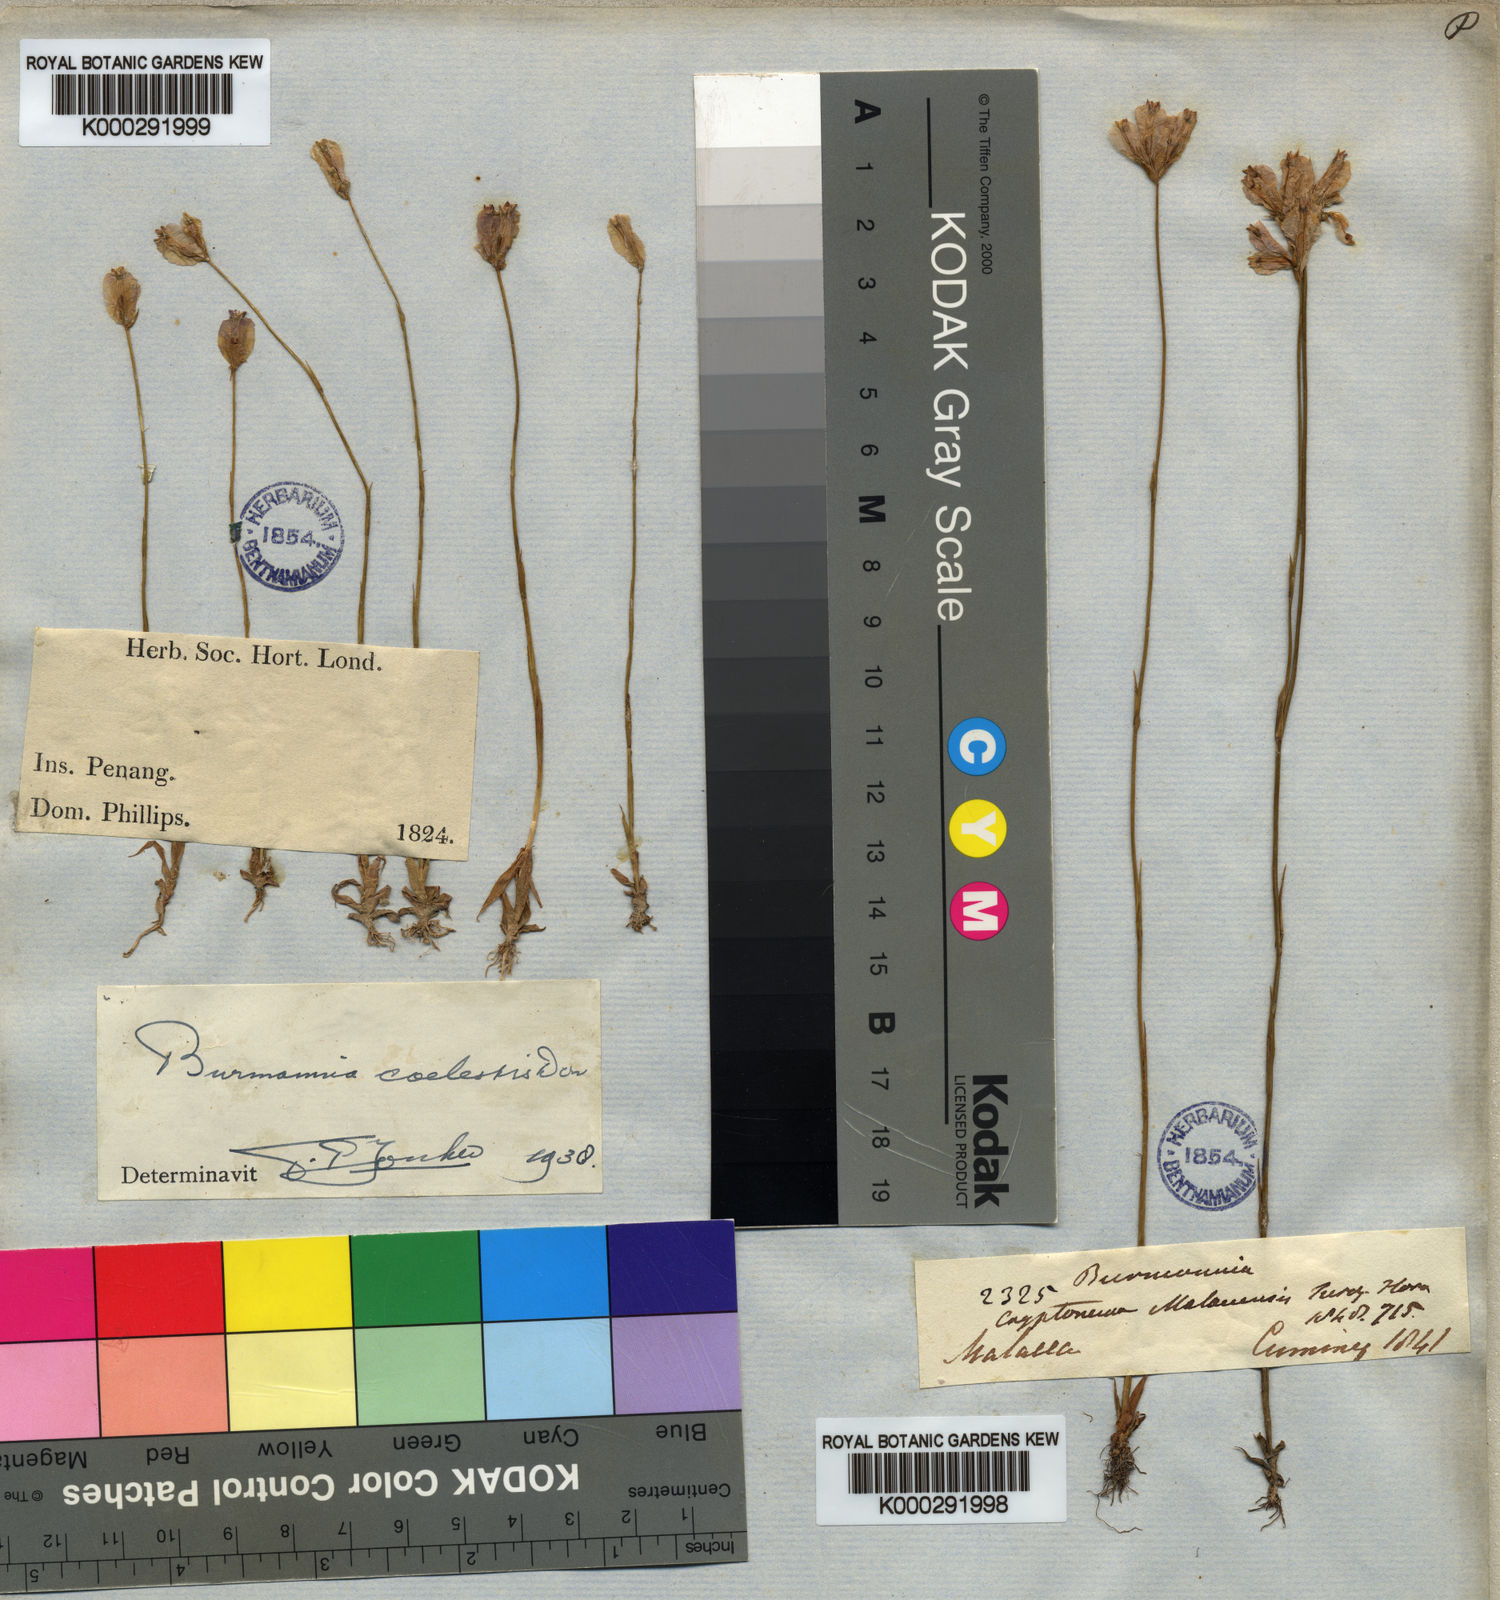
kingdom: Plantae
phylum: Tracheophyta
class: Liliopsida
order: Dioscoreales
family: Burmanniaceae
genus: Burmannia
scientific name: Burmannia coelestis
